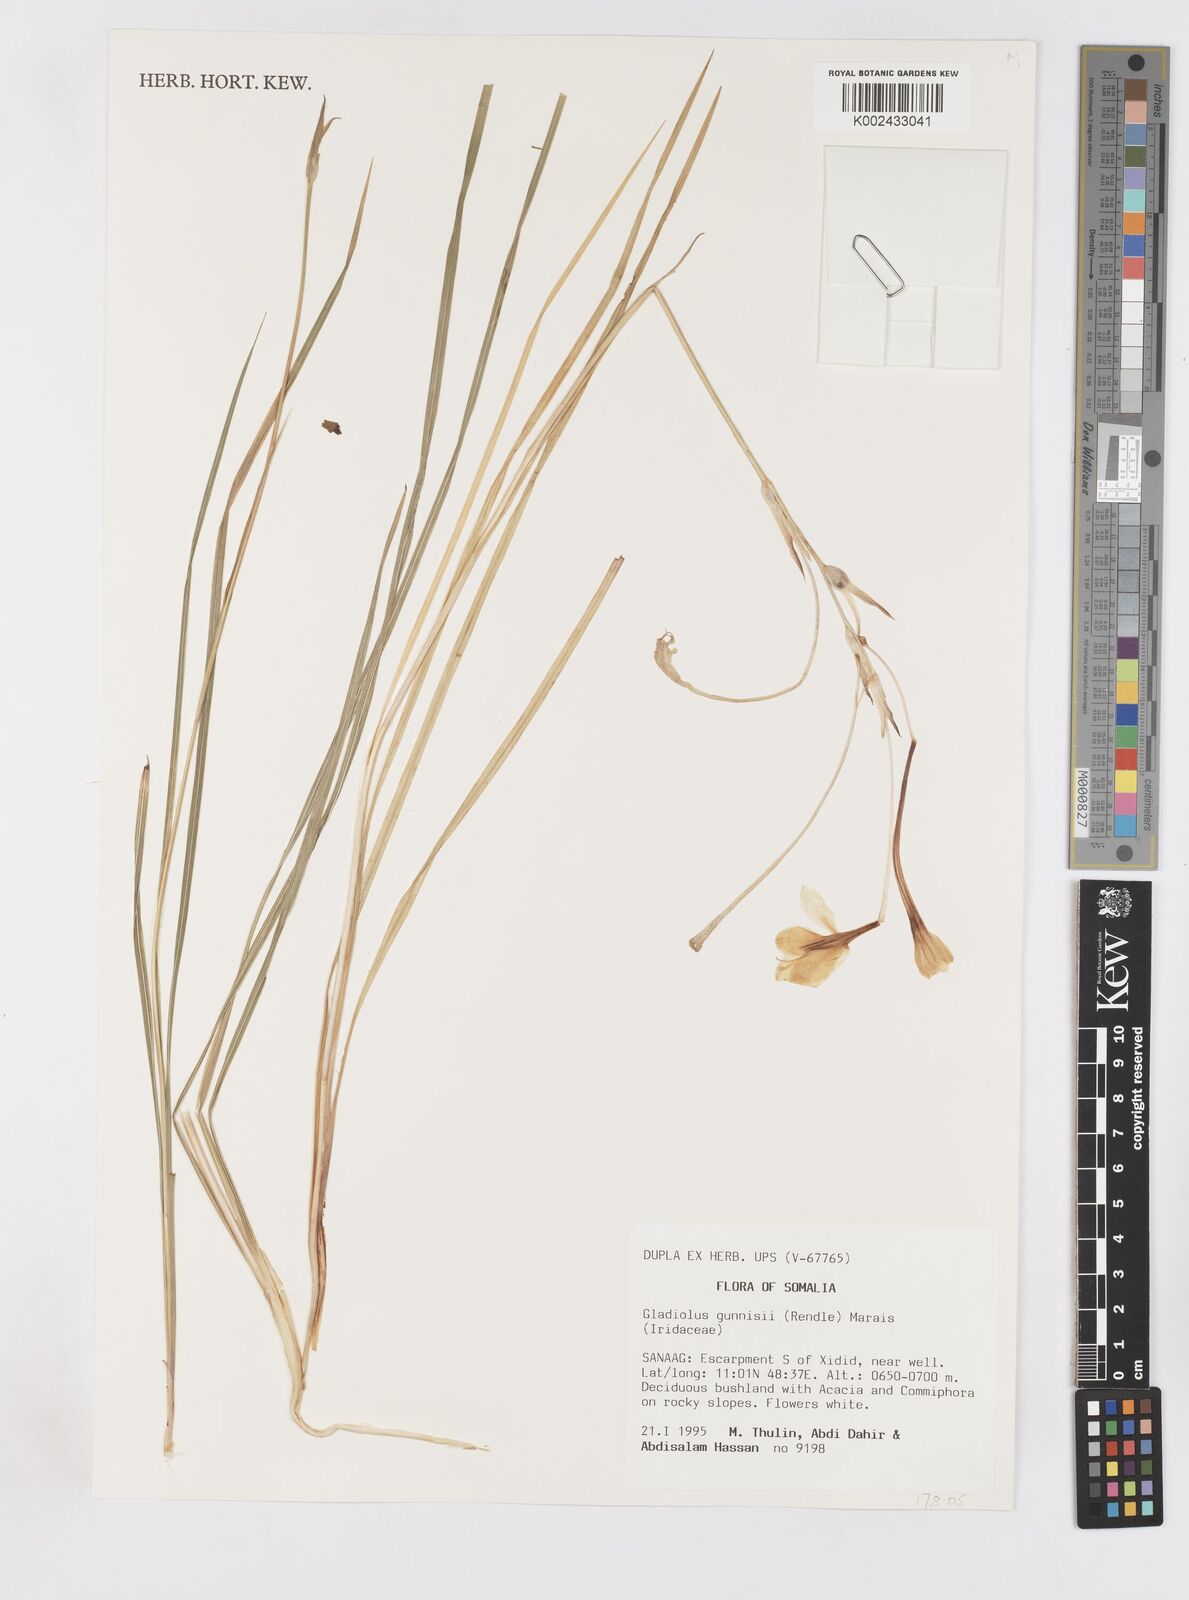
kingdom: Plantae
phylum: Tracheophyta
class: Liliopsida
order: Asparagales
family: Iridaceae
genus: Gladiolus
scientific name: Gladiolus gunnisii
